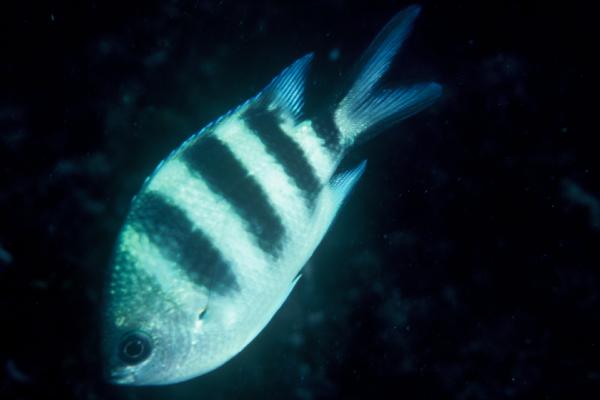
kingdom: Animalia
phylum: Chordata
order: Perciformes
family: Pomacentridae
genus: Abudefduf
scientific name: Abudefduf natalensis
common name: Natal sergeant
